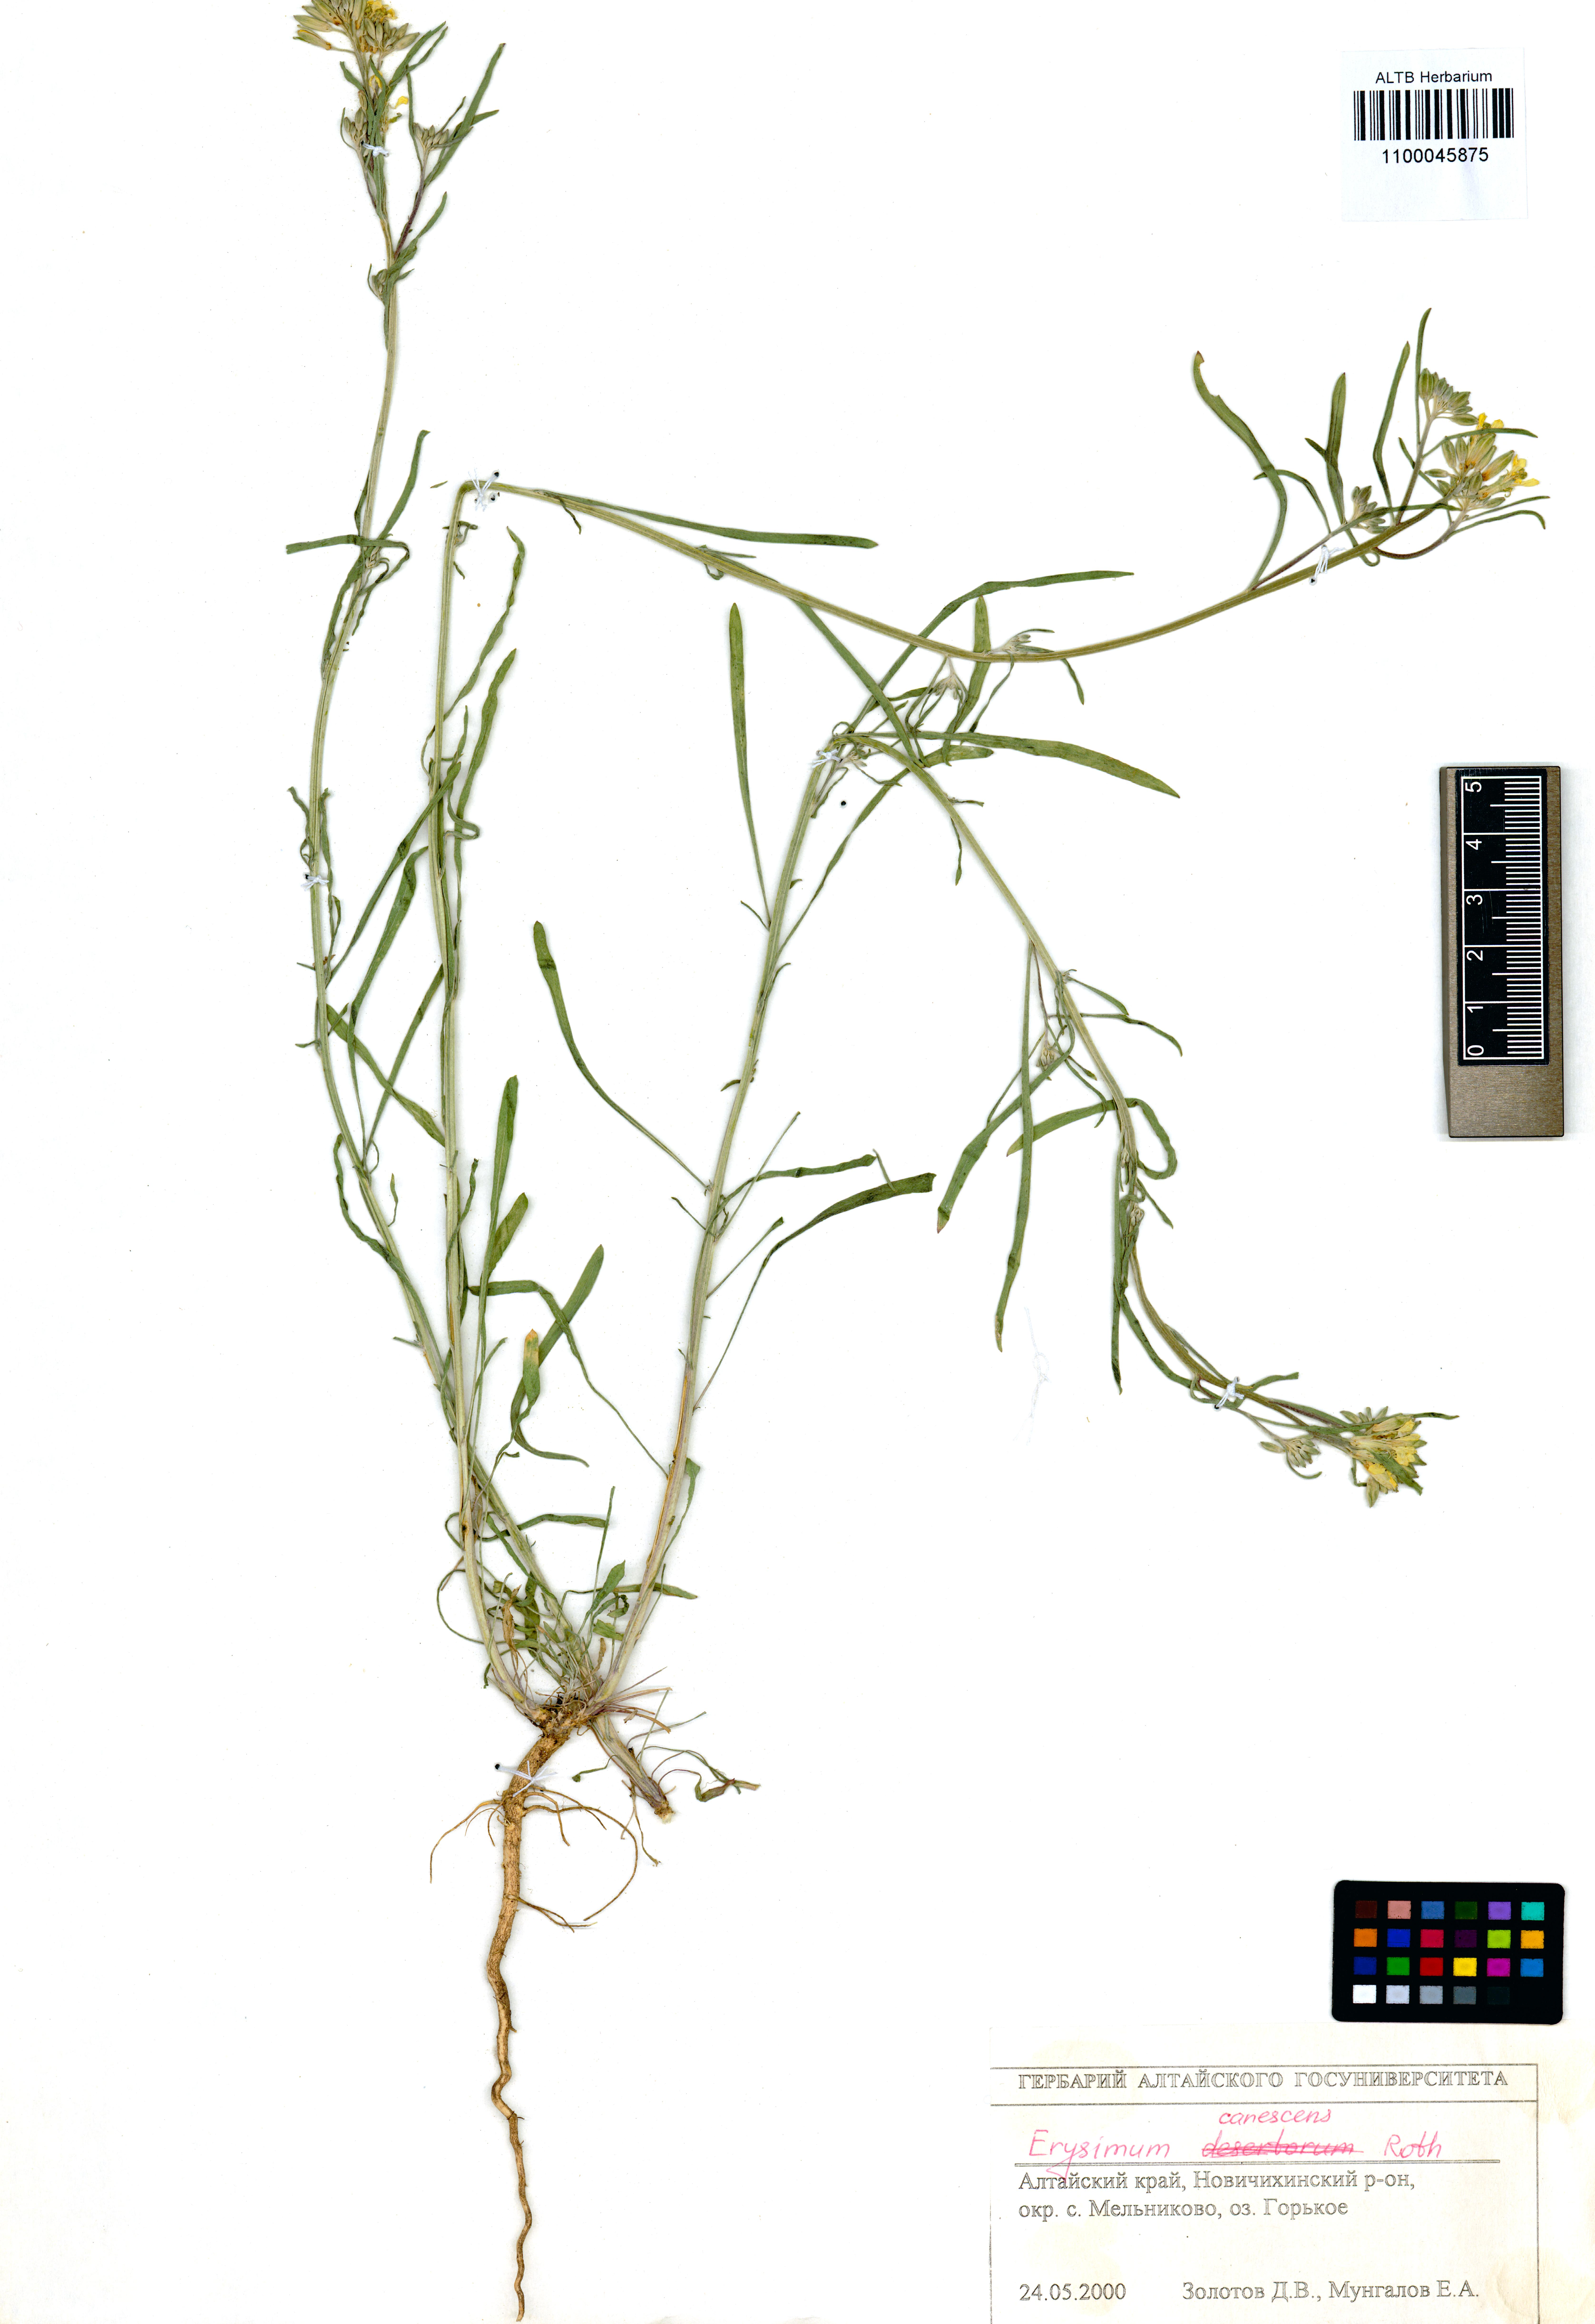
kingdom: Plantae
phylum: Tracheophyta
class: Magnoliopsida
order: Brassicales
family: Brassicaceae
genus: Erysimum
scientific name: Erysimum canescens
